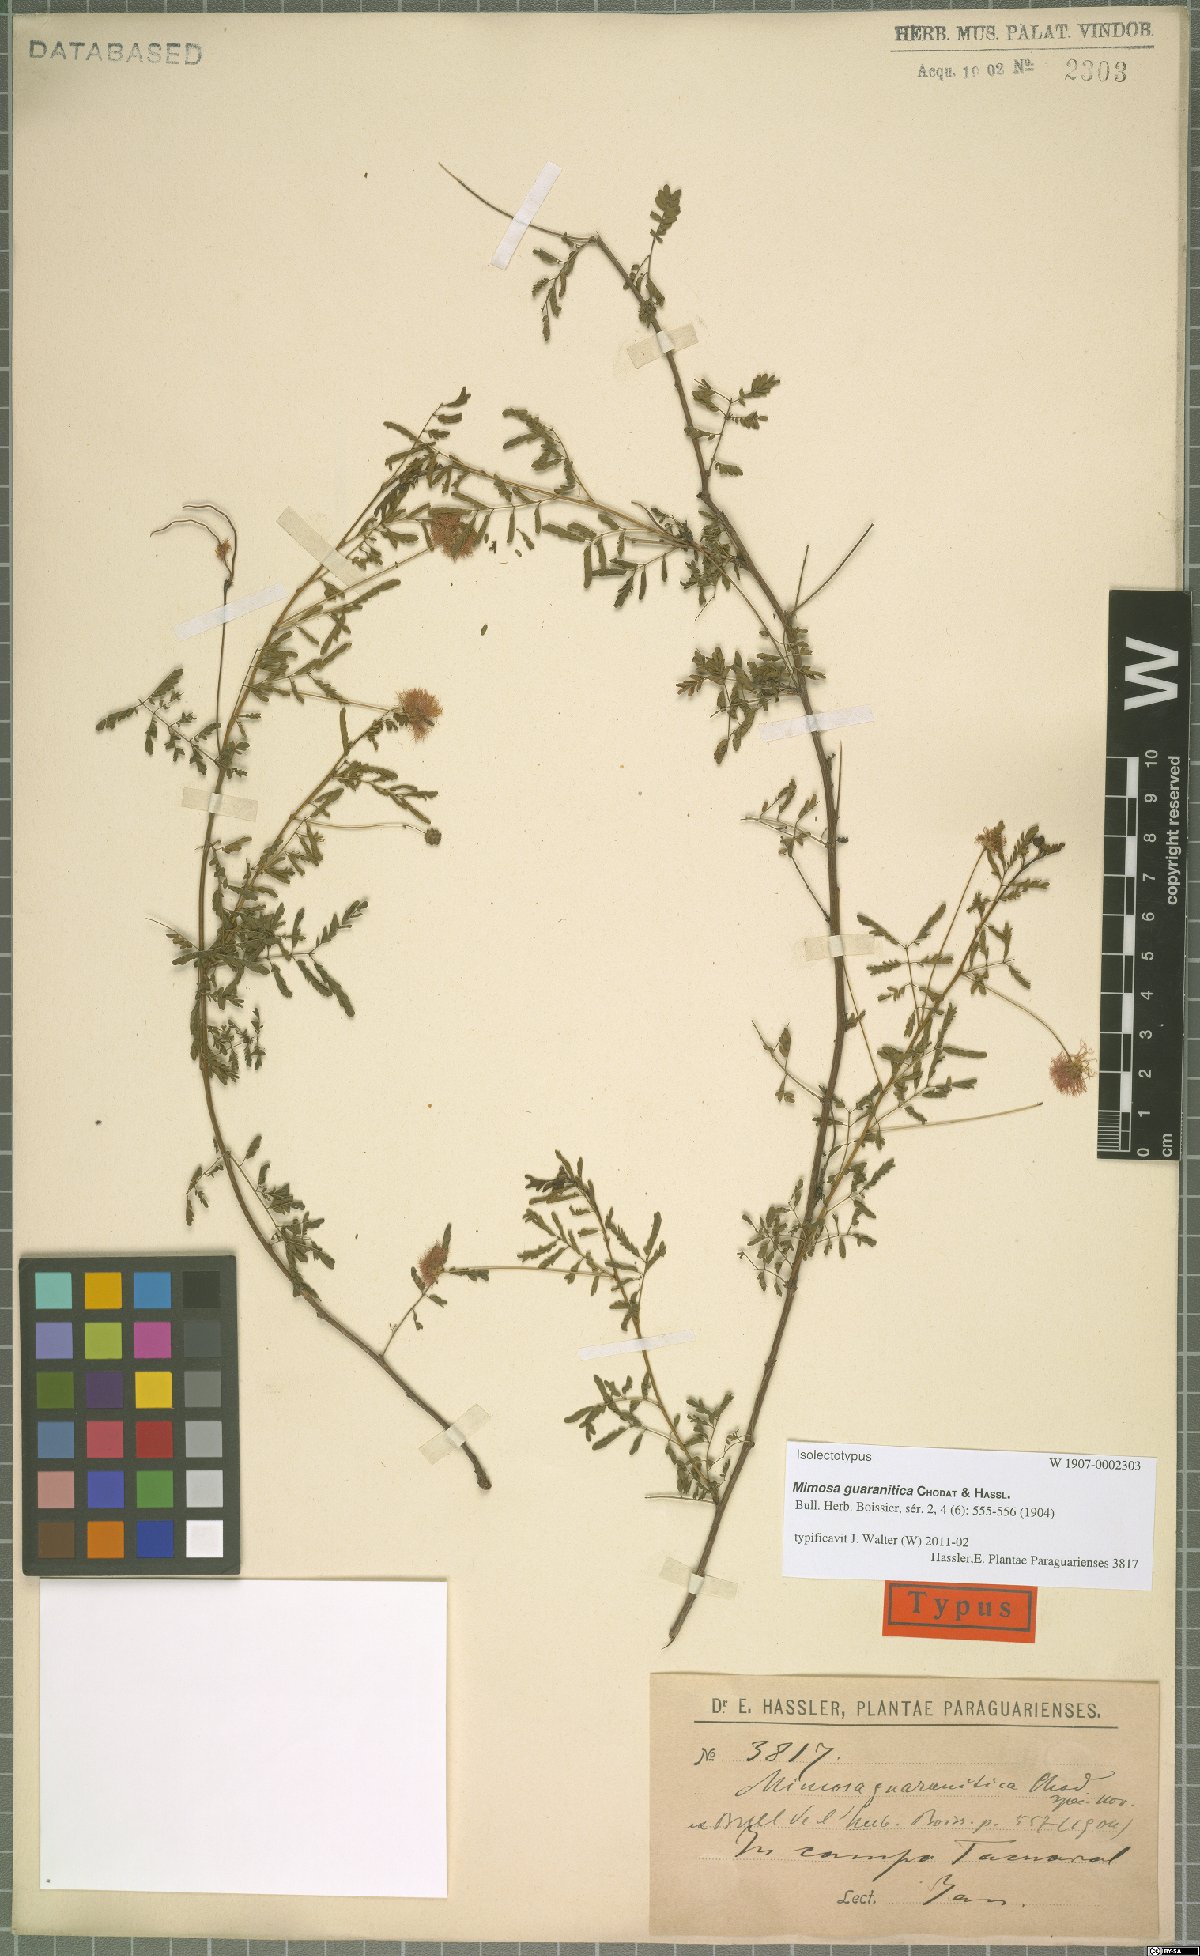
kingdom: Plantae
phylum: Tracheophyta
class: Magnoliopsida
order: Fabales
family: Fabaceae
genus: Mimosa
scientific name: Mimosa guaranitica
